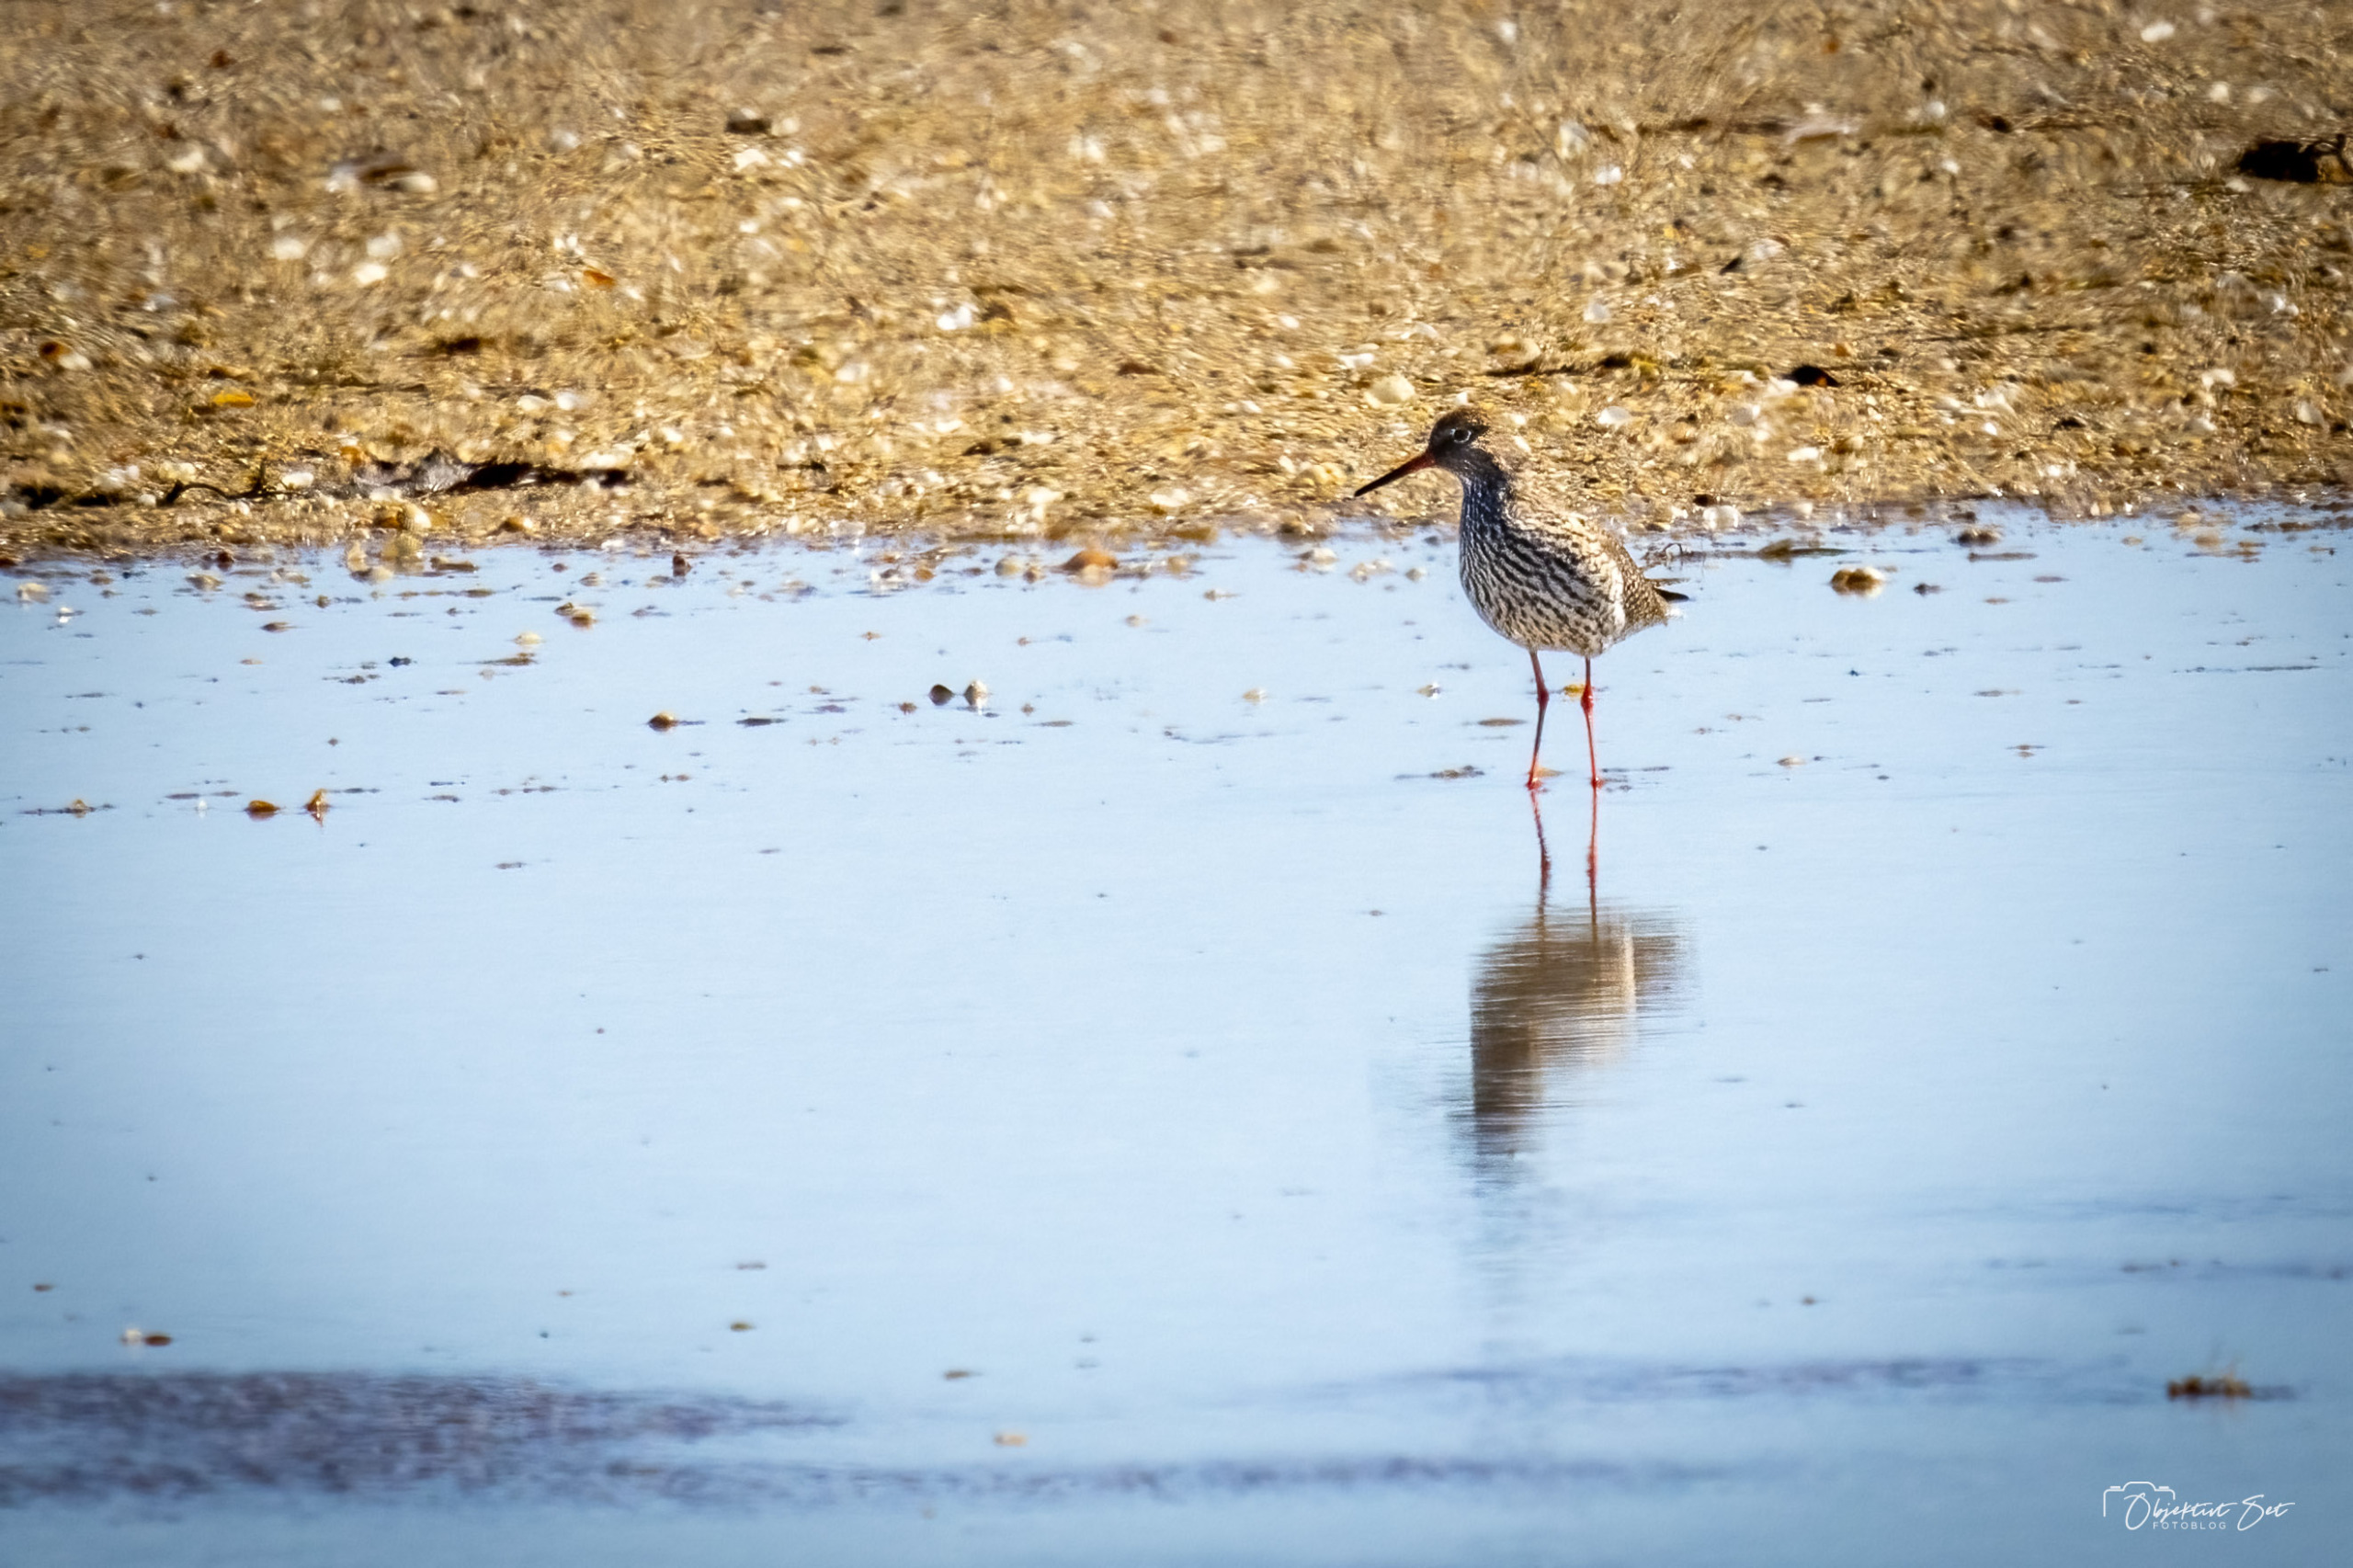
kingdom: Animalia
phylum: Chordata
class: Aves
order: Charadriiformes
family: Scolopacidae
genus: Tringa
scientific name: Tringa totanus
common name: Rødben
